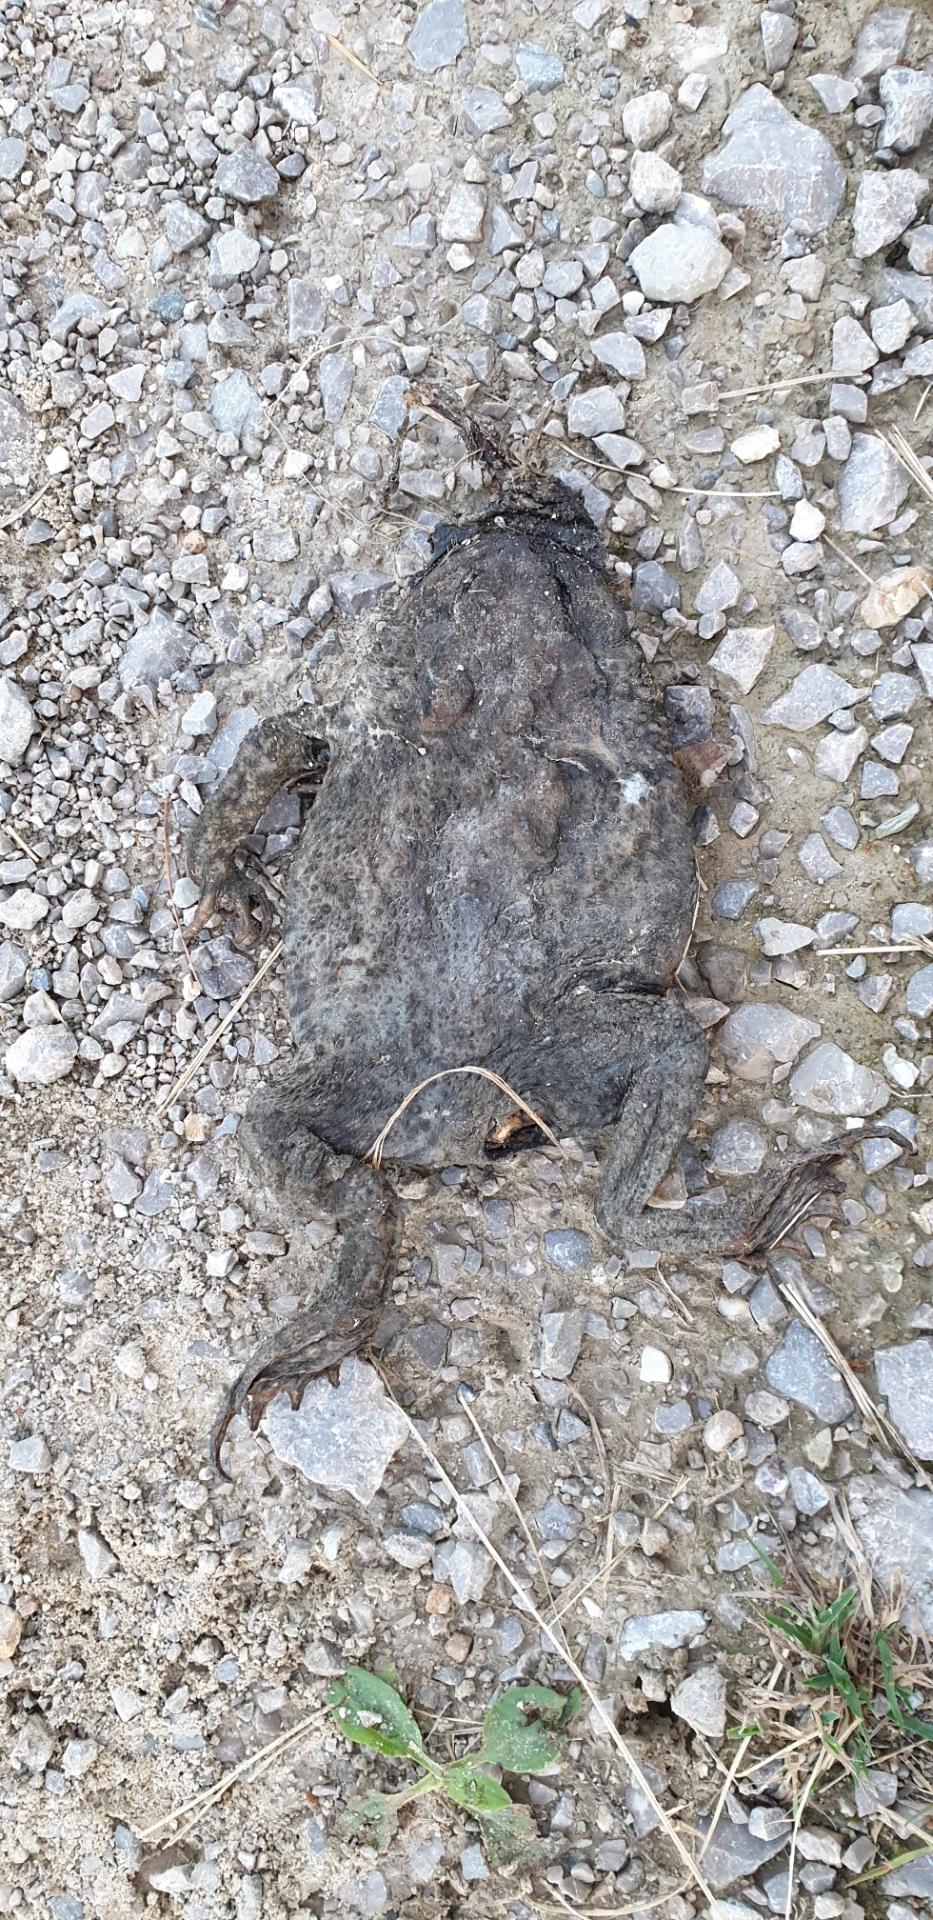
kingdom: Animalia
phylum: Chordata
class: Amphibia
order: Anura
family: Bufonidae
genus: Bufo
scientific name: Bufo bufo
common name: Common toad
